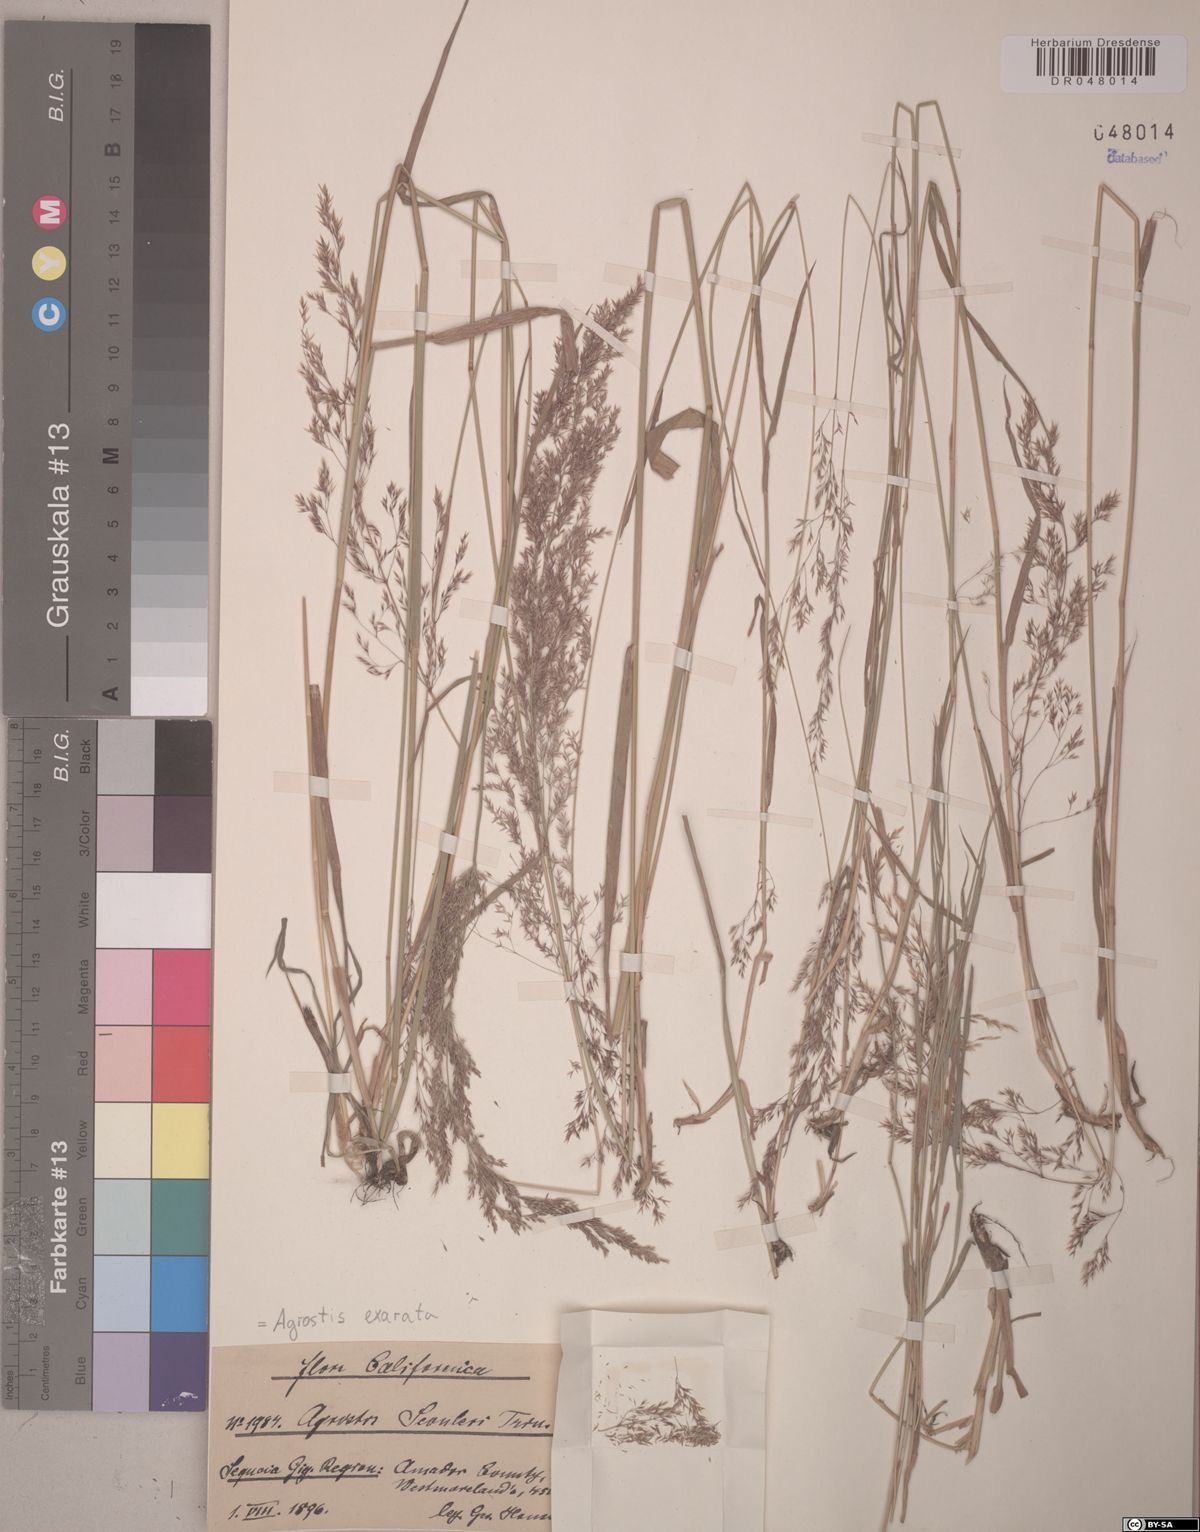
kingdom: Plantae
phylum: Tracheophyta
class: Liliopsida
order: Poales
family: Poaceae
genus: Agrostis
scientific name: Agrostis exarata
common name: Spike bent
